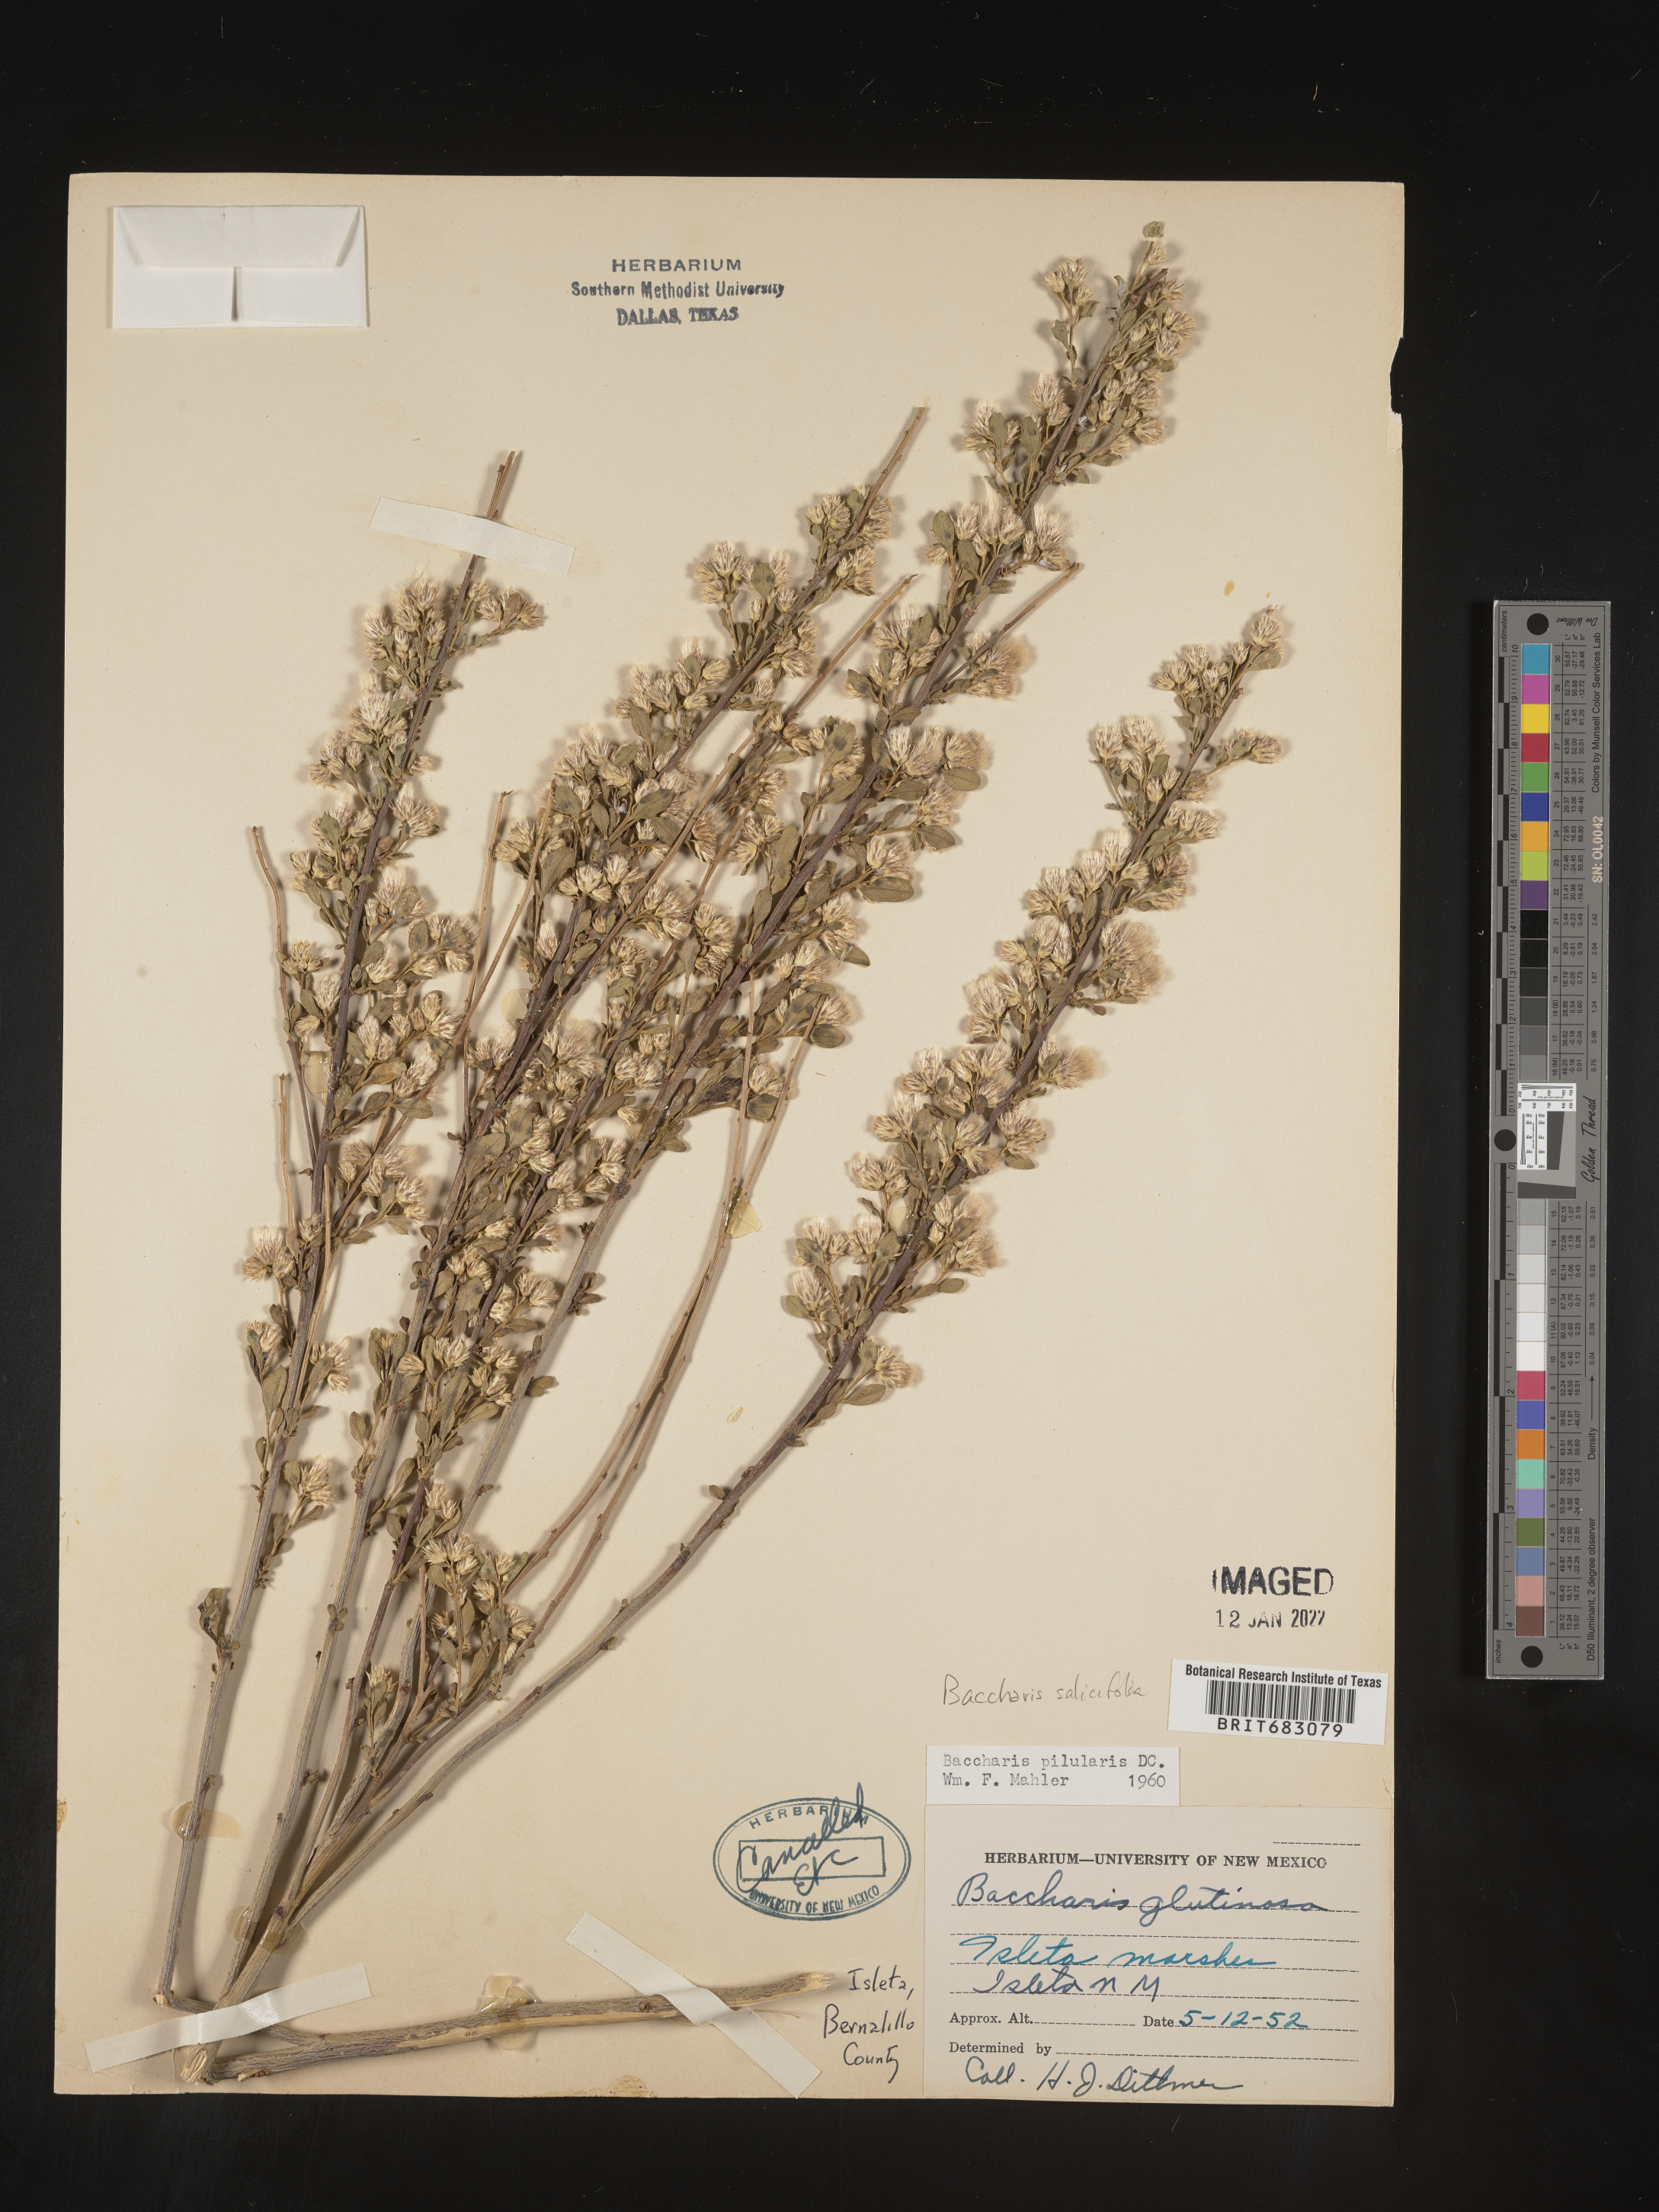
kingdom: Plantae
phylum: Tracheophyta
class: Magnoliopsida
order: Asterales
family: Asteraceae
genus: Baccharis
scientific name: Baccharis salicifolia
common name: Sticky baccharis
